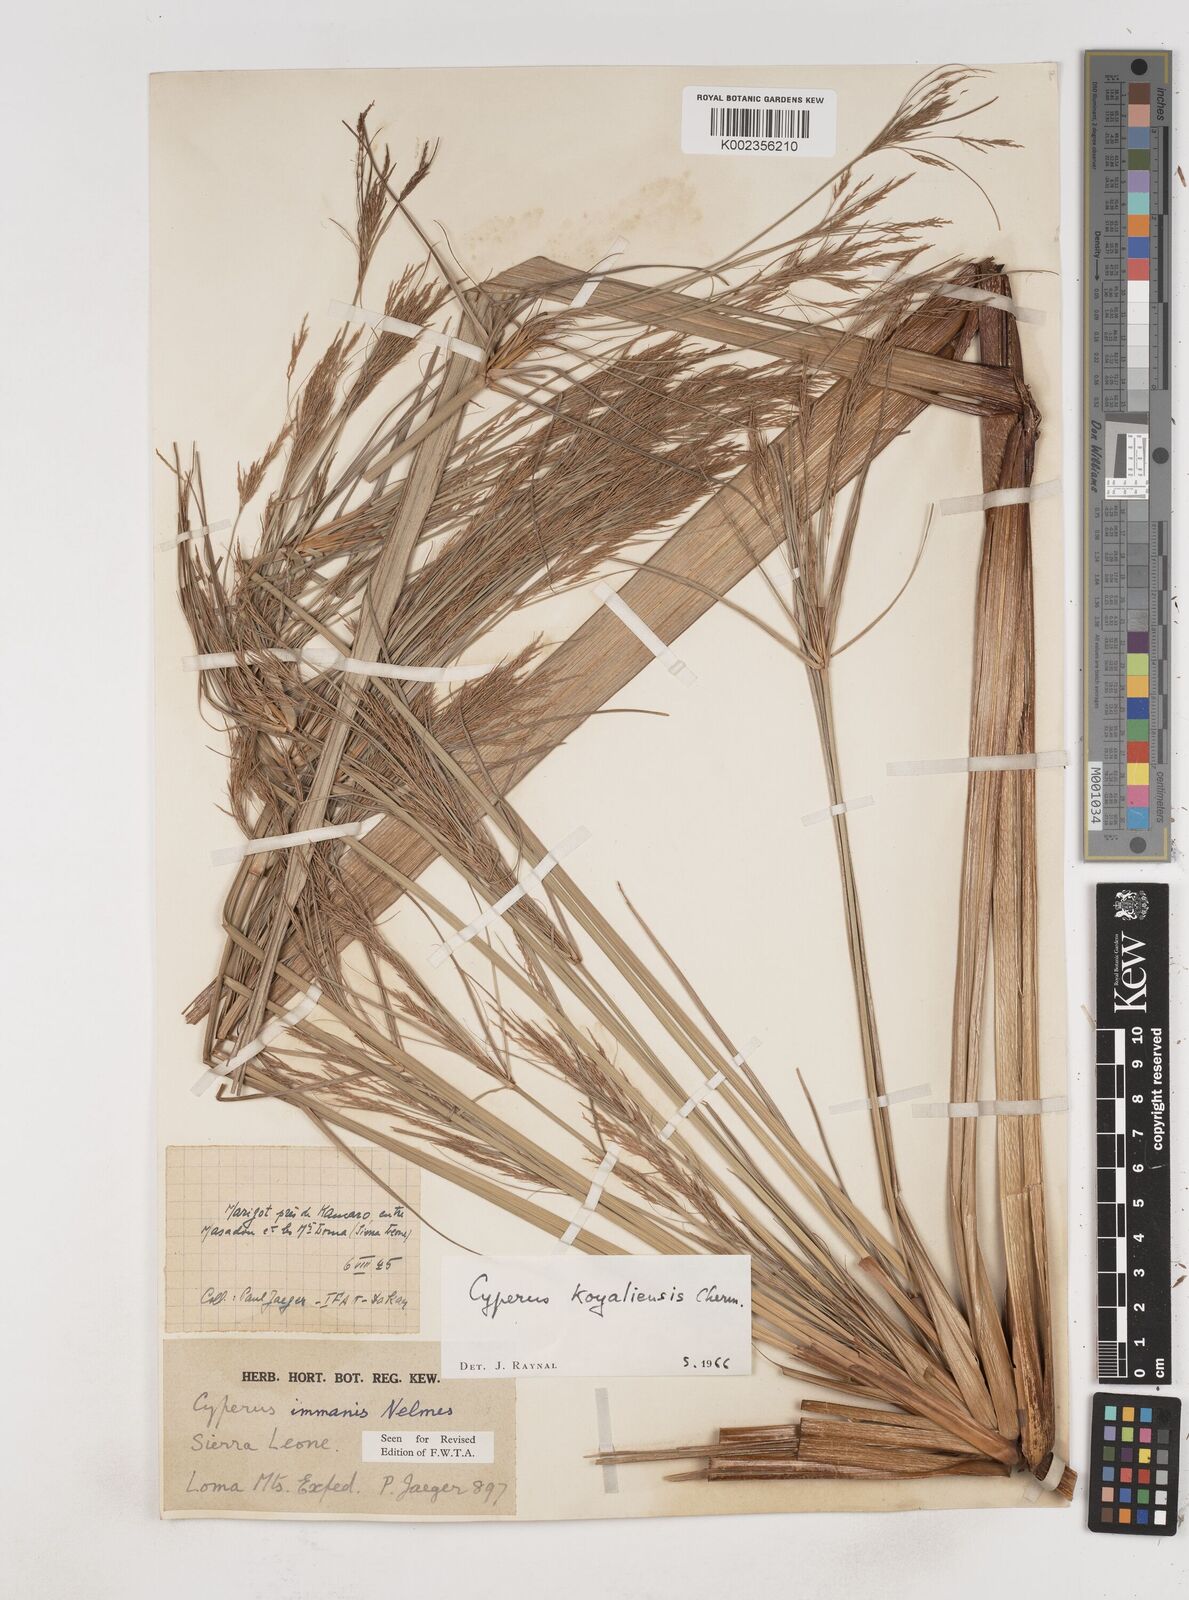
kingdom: Plantae
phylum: Tracheophyta
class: Liliopsida
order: Poales
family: Cyperaceae
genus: Cyperus
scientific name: Cyperus koyaliensis
